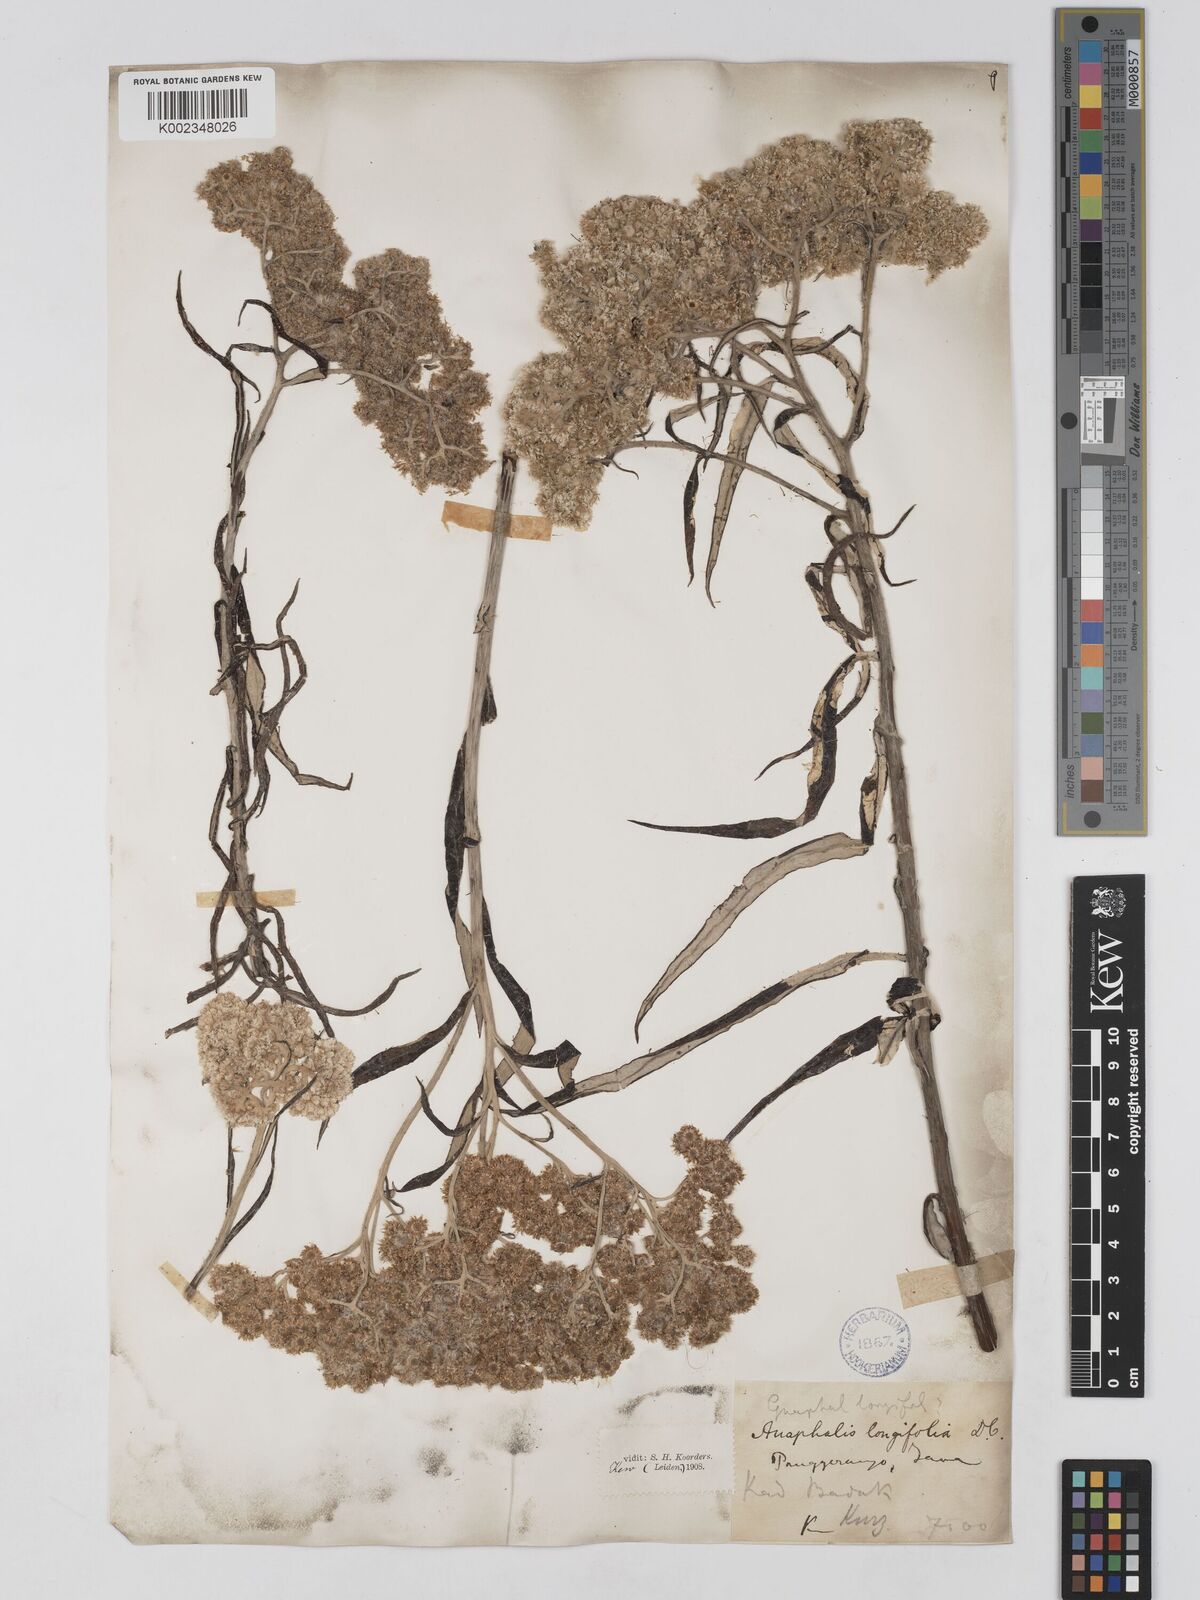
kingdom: Plantae
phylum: Tracheophyta
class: Magnoliopsida
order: Asterales
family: Asteraceae
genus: Anaphalis
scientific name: Anaphalis longifolia
